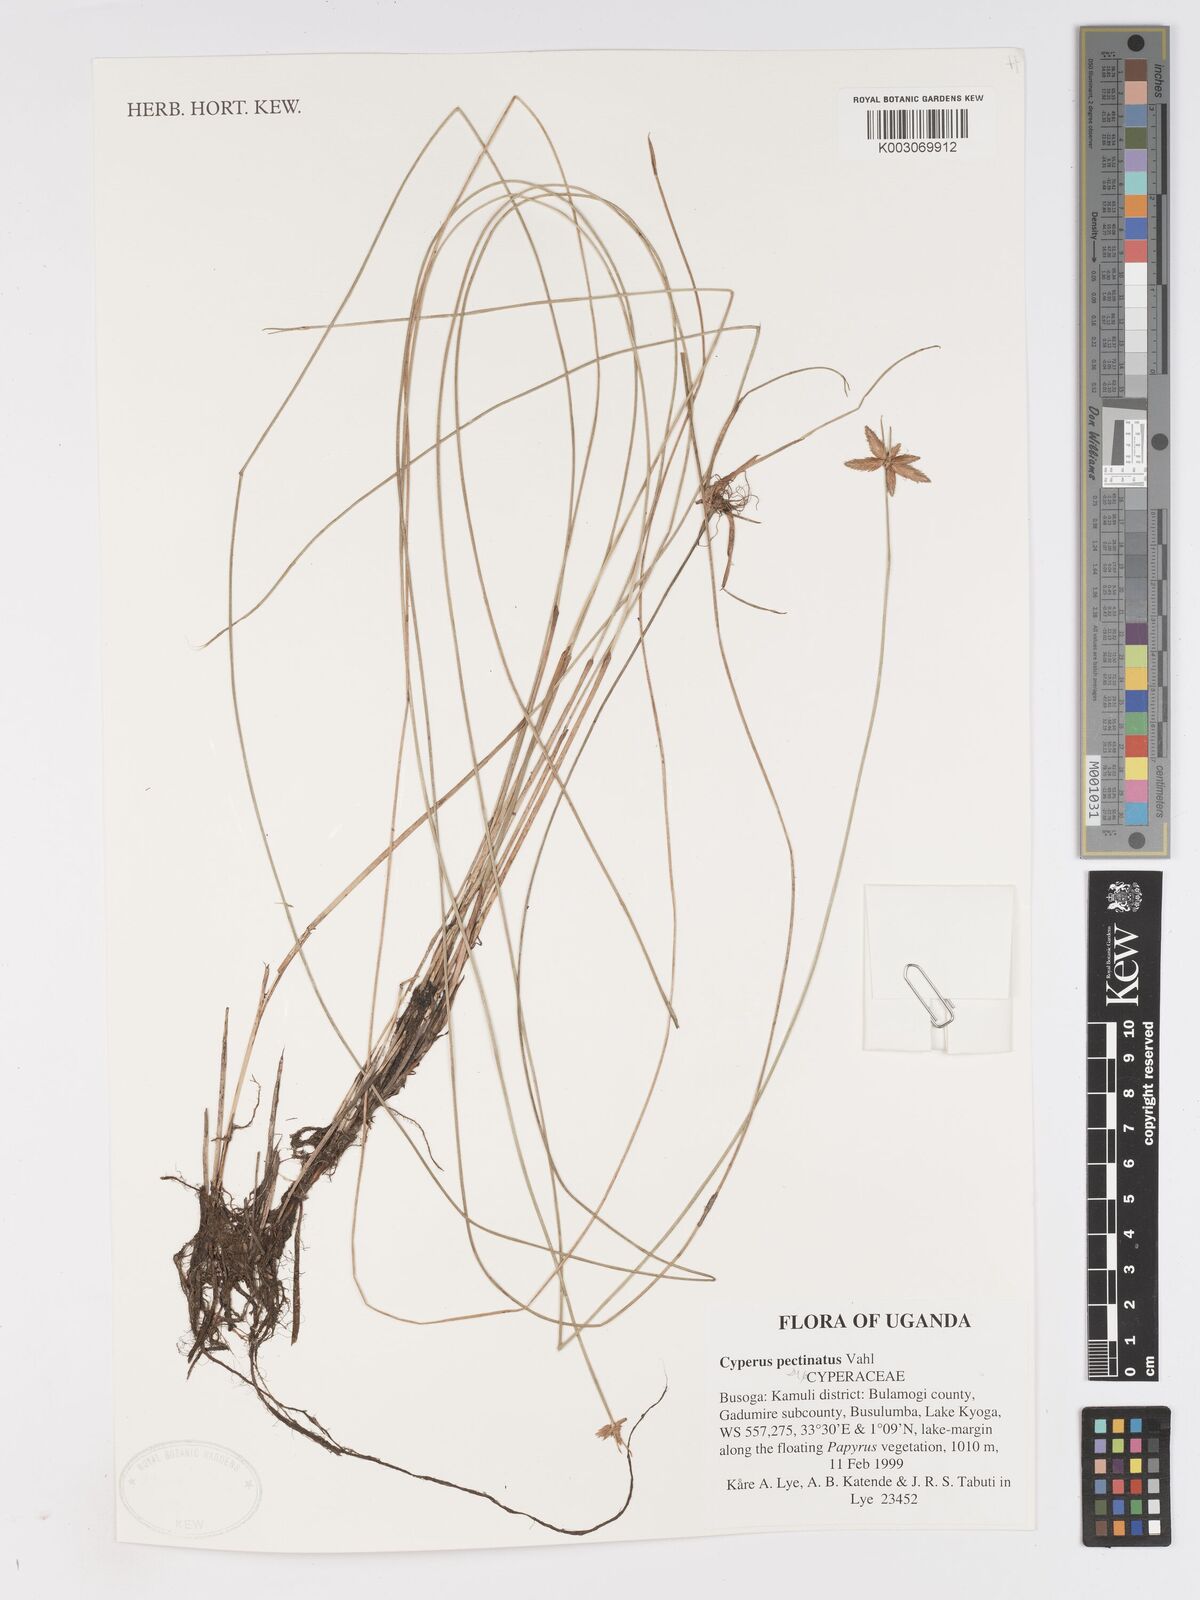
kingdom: Plantae
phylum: Tracheophyta
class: Liliopsida
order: Poales
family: Cyperaceae
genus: Cyperus
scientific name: Cyperus pectinatus
